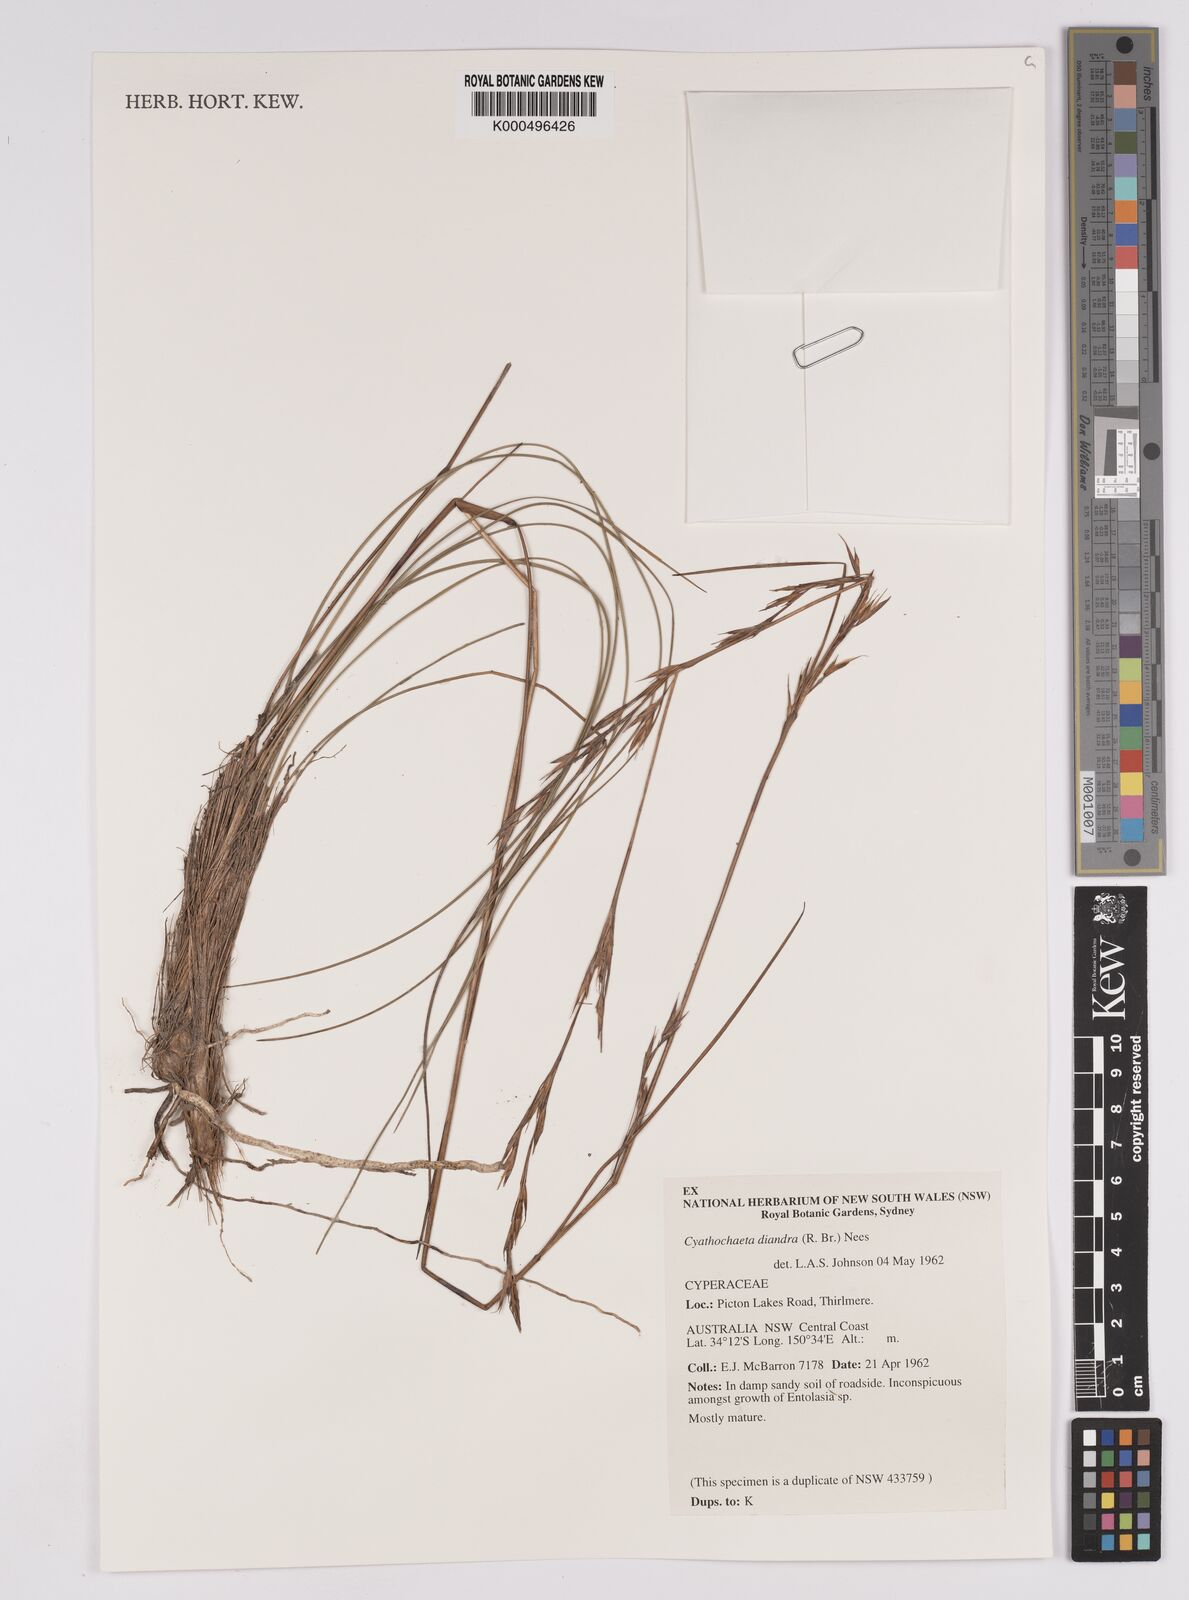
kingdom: Plantae
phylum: Tracheophyta
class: Liliopsida
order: Poales
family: Cyperaceae
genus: Cyathochaeta
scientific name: Cyathochaeta diandra
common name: Sheath rush
